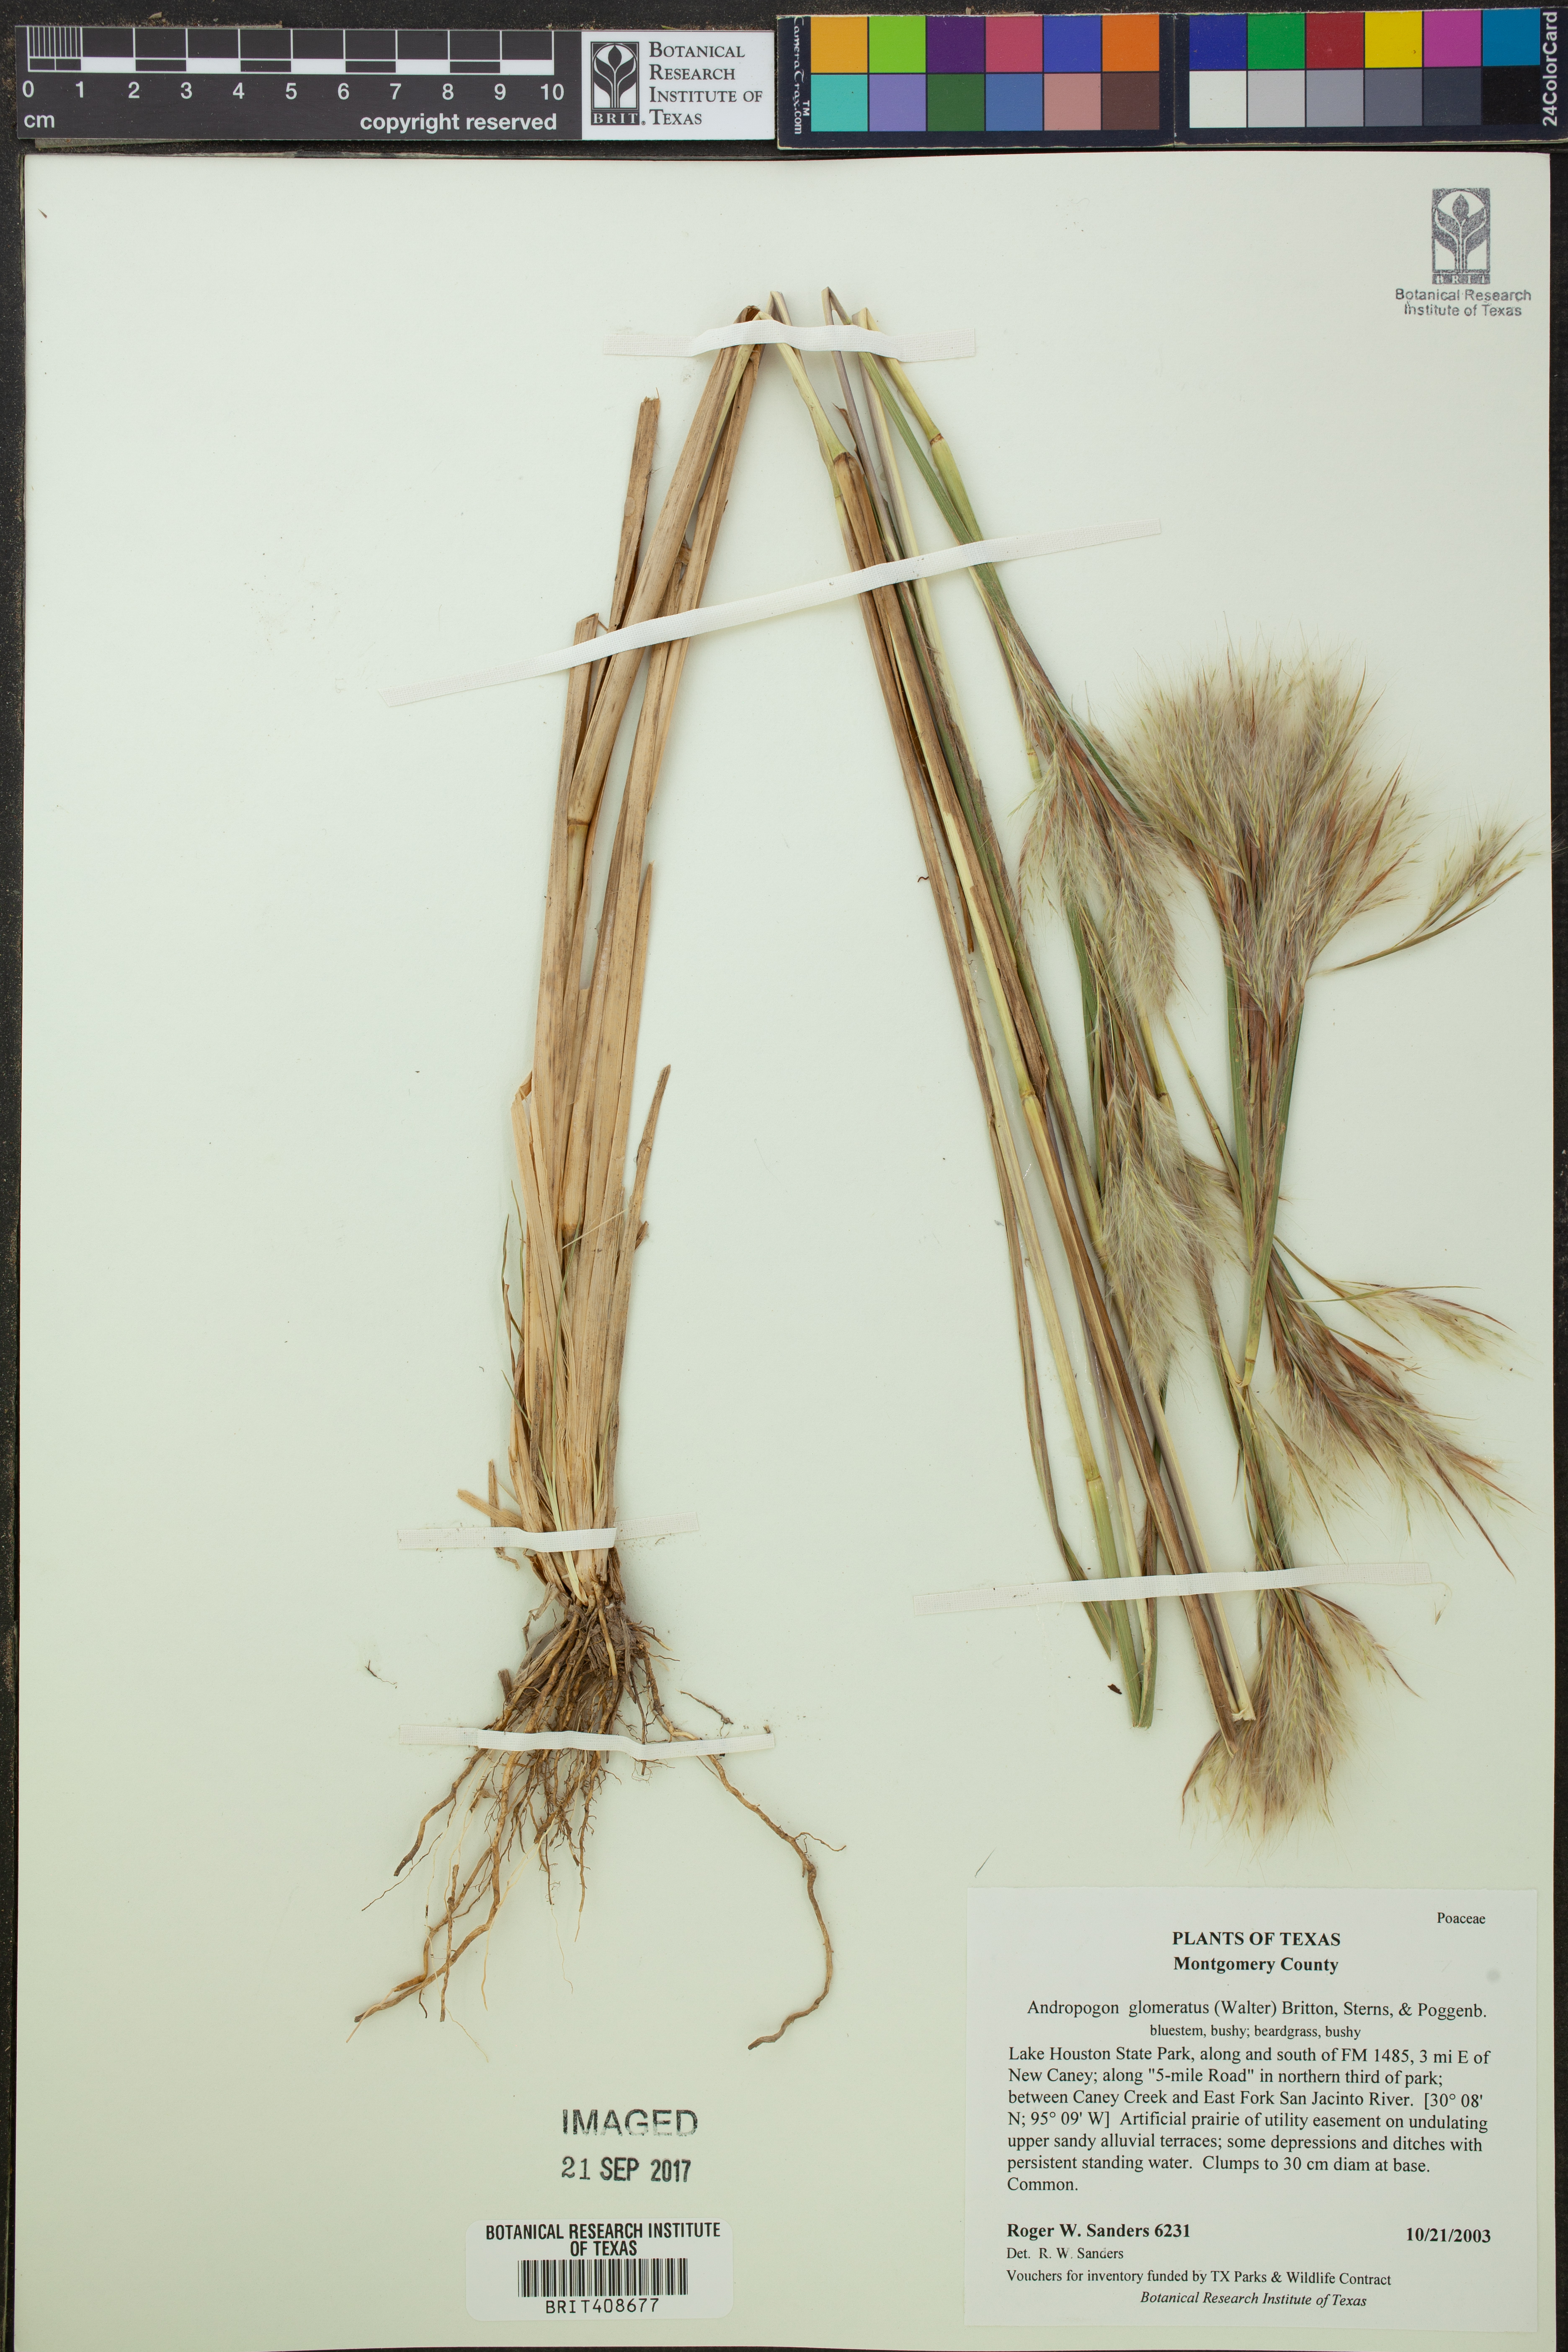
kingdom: Plantae
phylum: Tracheophyta
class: Liliopsida
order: Poales
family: Poaceae
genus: Andropogon
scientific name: Andropogon glomeratus
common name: Bushy beard grass
